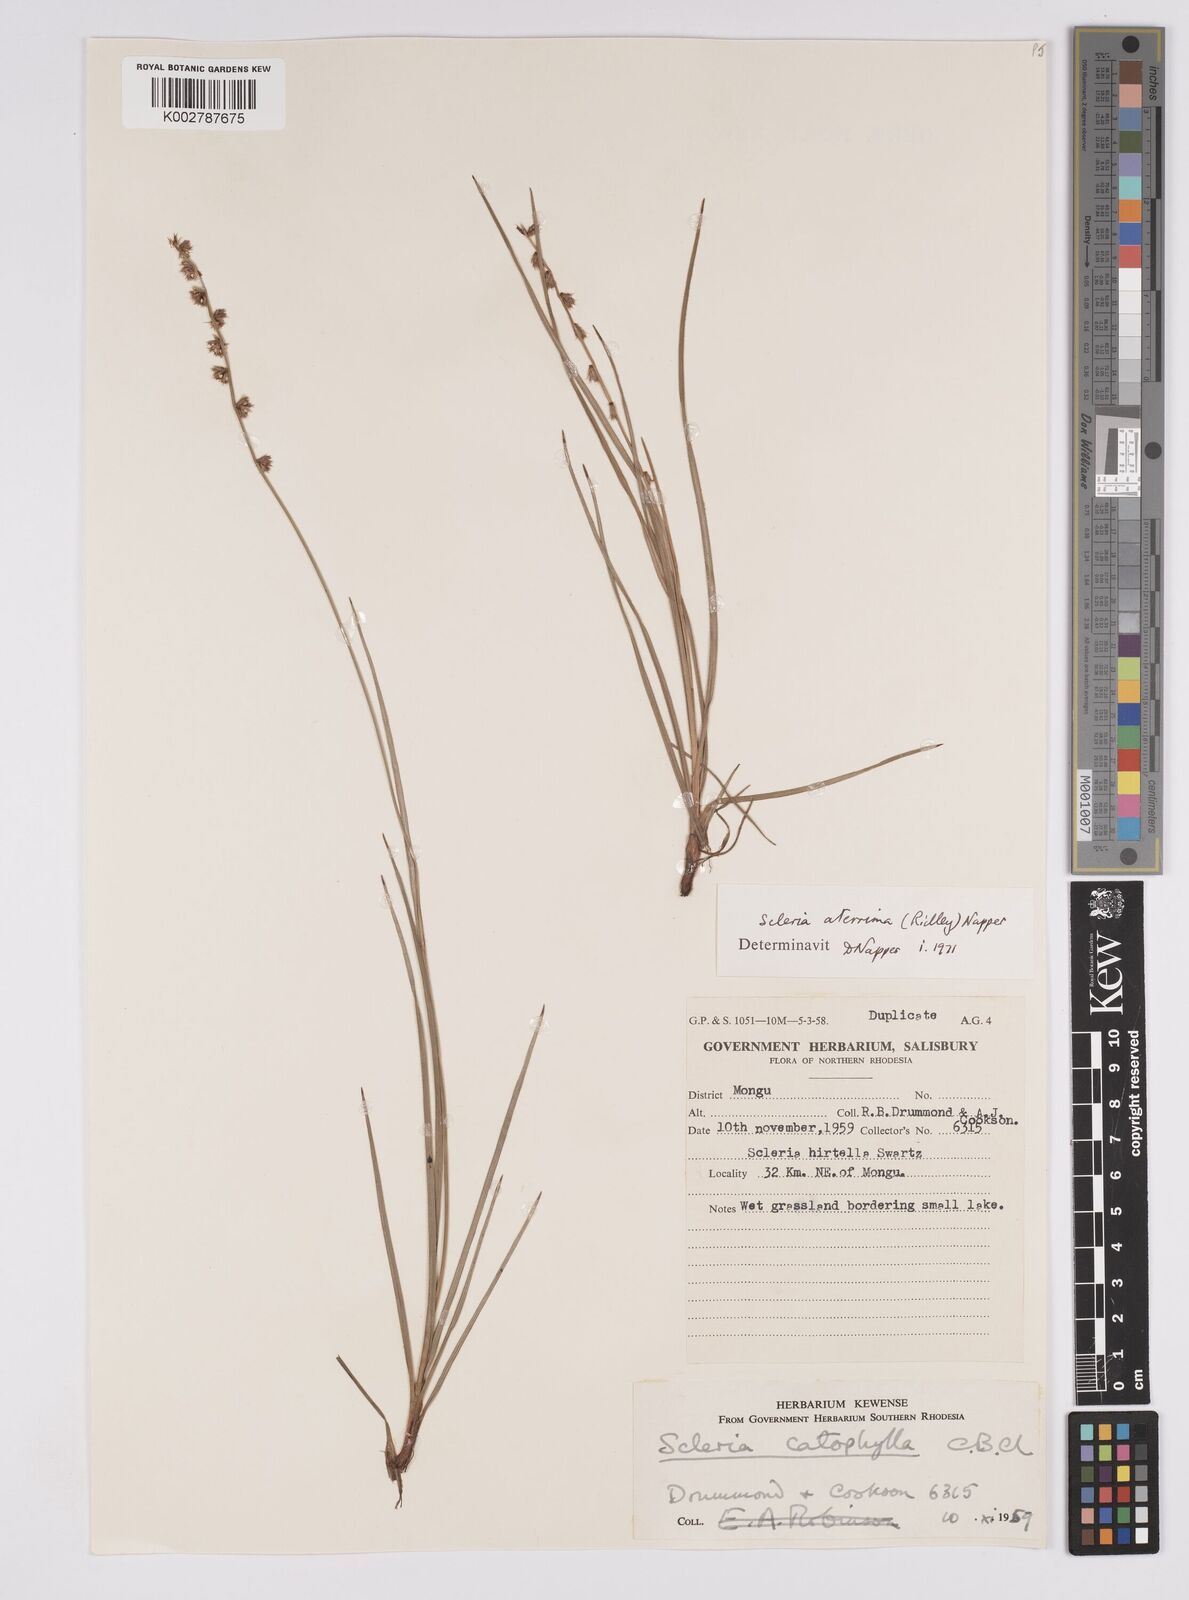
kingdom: Plantae
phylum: Tracheophyta
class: Liliopsida
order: Poales
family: Cyperaceae
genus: Scleria
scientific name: Scleria catophylla
